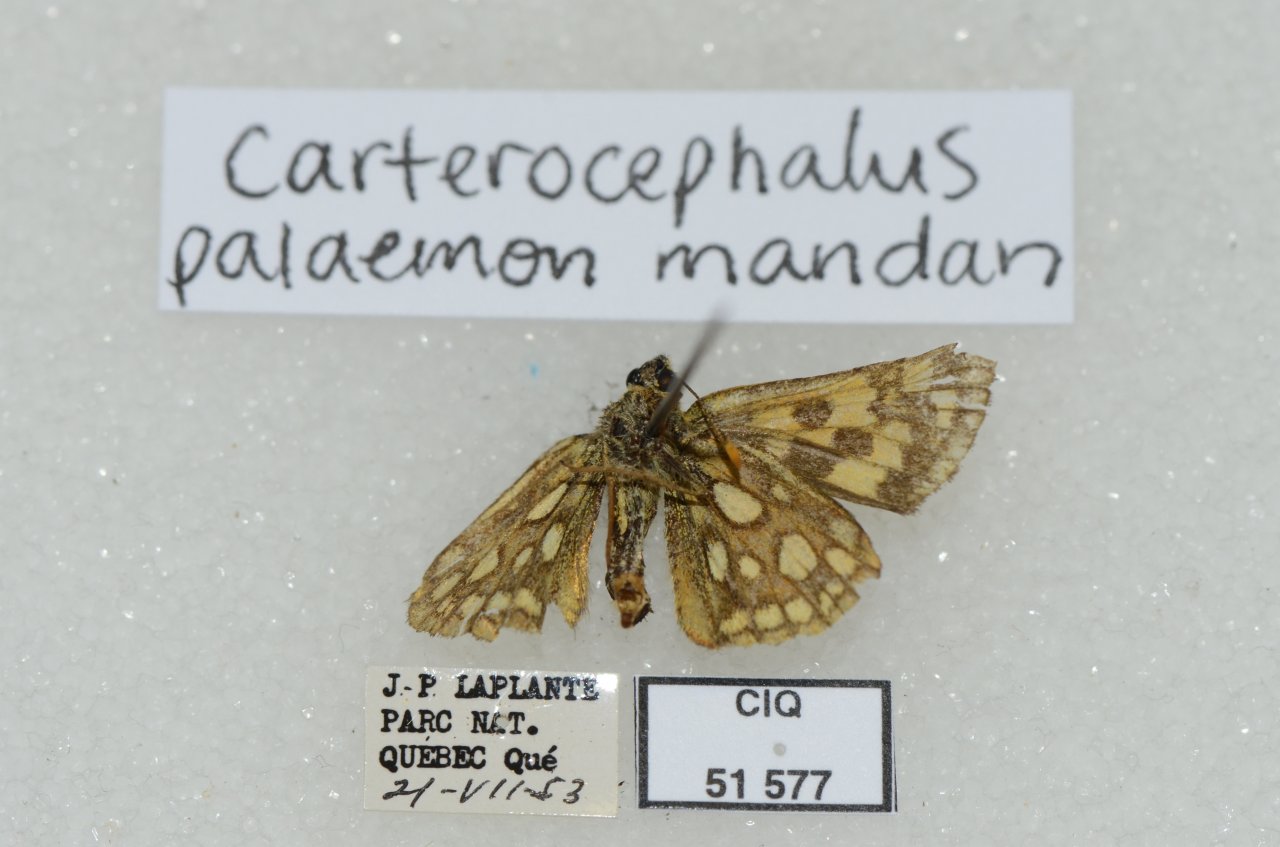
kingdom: Animalia
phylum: Arthropoda
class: Insecta
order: Lepidoptera
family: Hesperiidae
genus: Carterocephalus
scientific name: Carterocephalus palaemon
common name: Chequered Skipper
